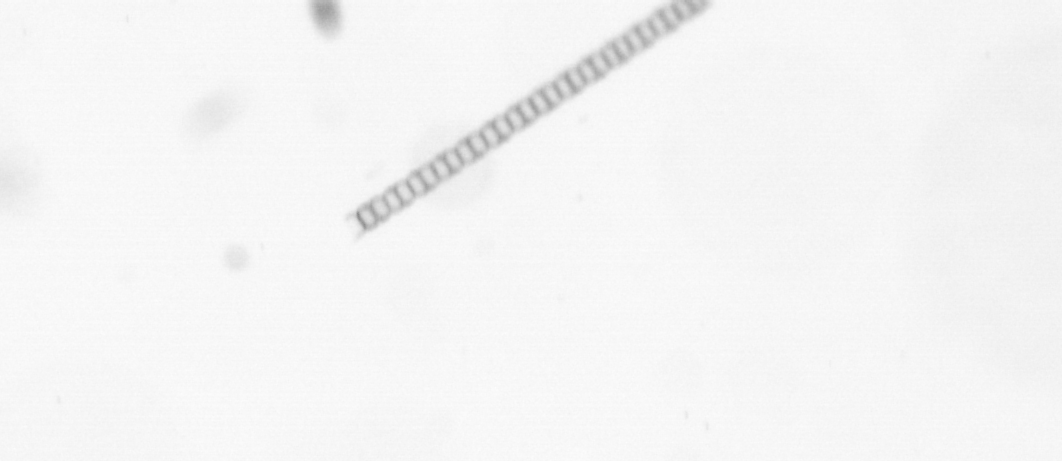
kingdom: Chromista
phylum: Ochrophyta
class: Bacillariophyceae
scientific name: Bacillariophyceae
